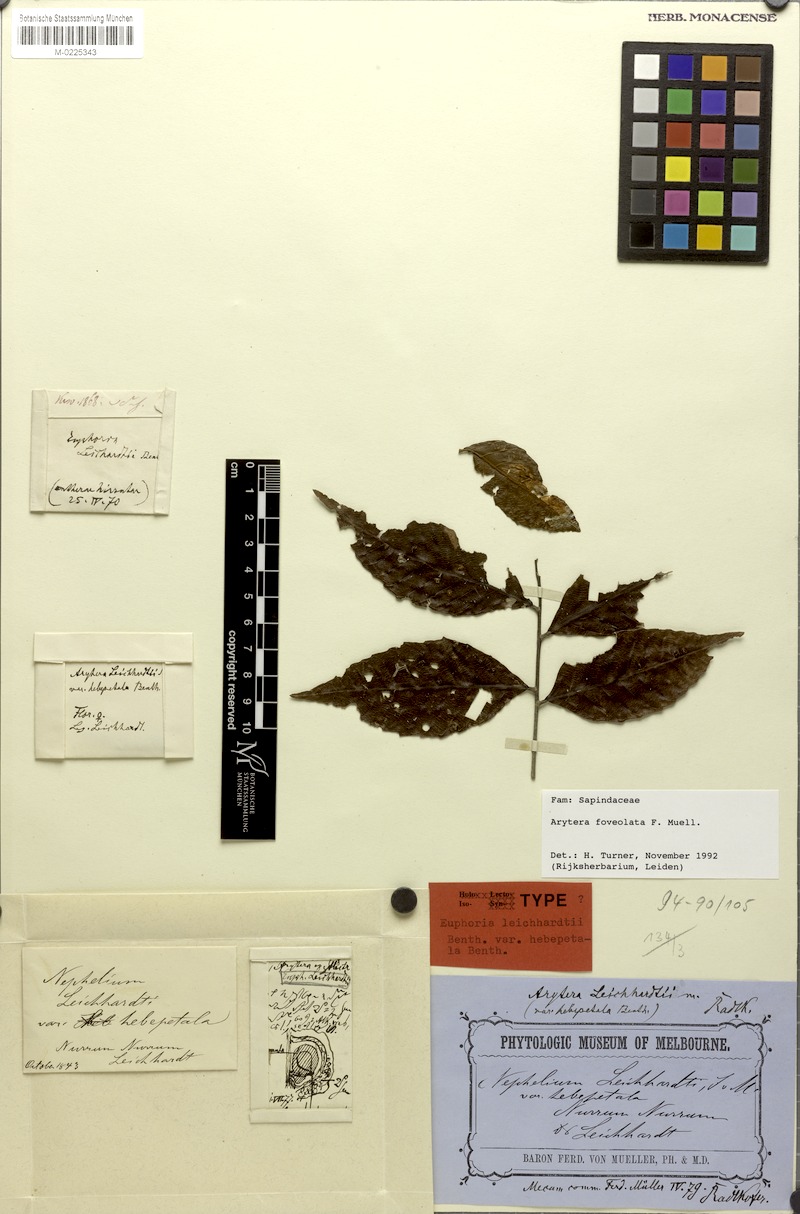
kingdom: Plantae
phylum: Tracheophyta
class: Magnoliopsida
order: Sapindales
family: Sapindaceae
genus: Arytera
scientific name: Arytera foveolata
